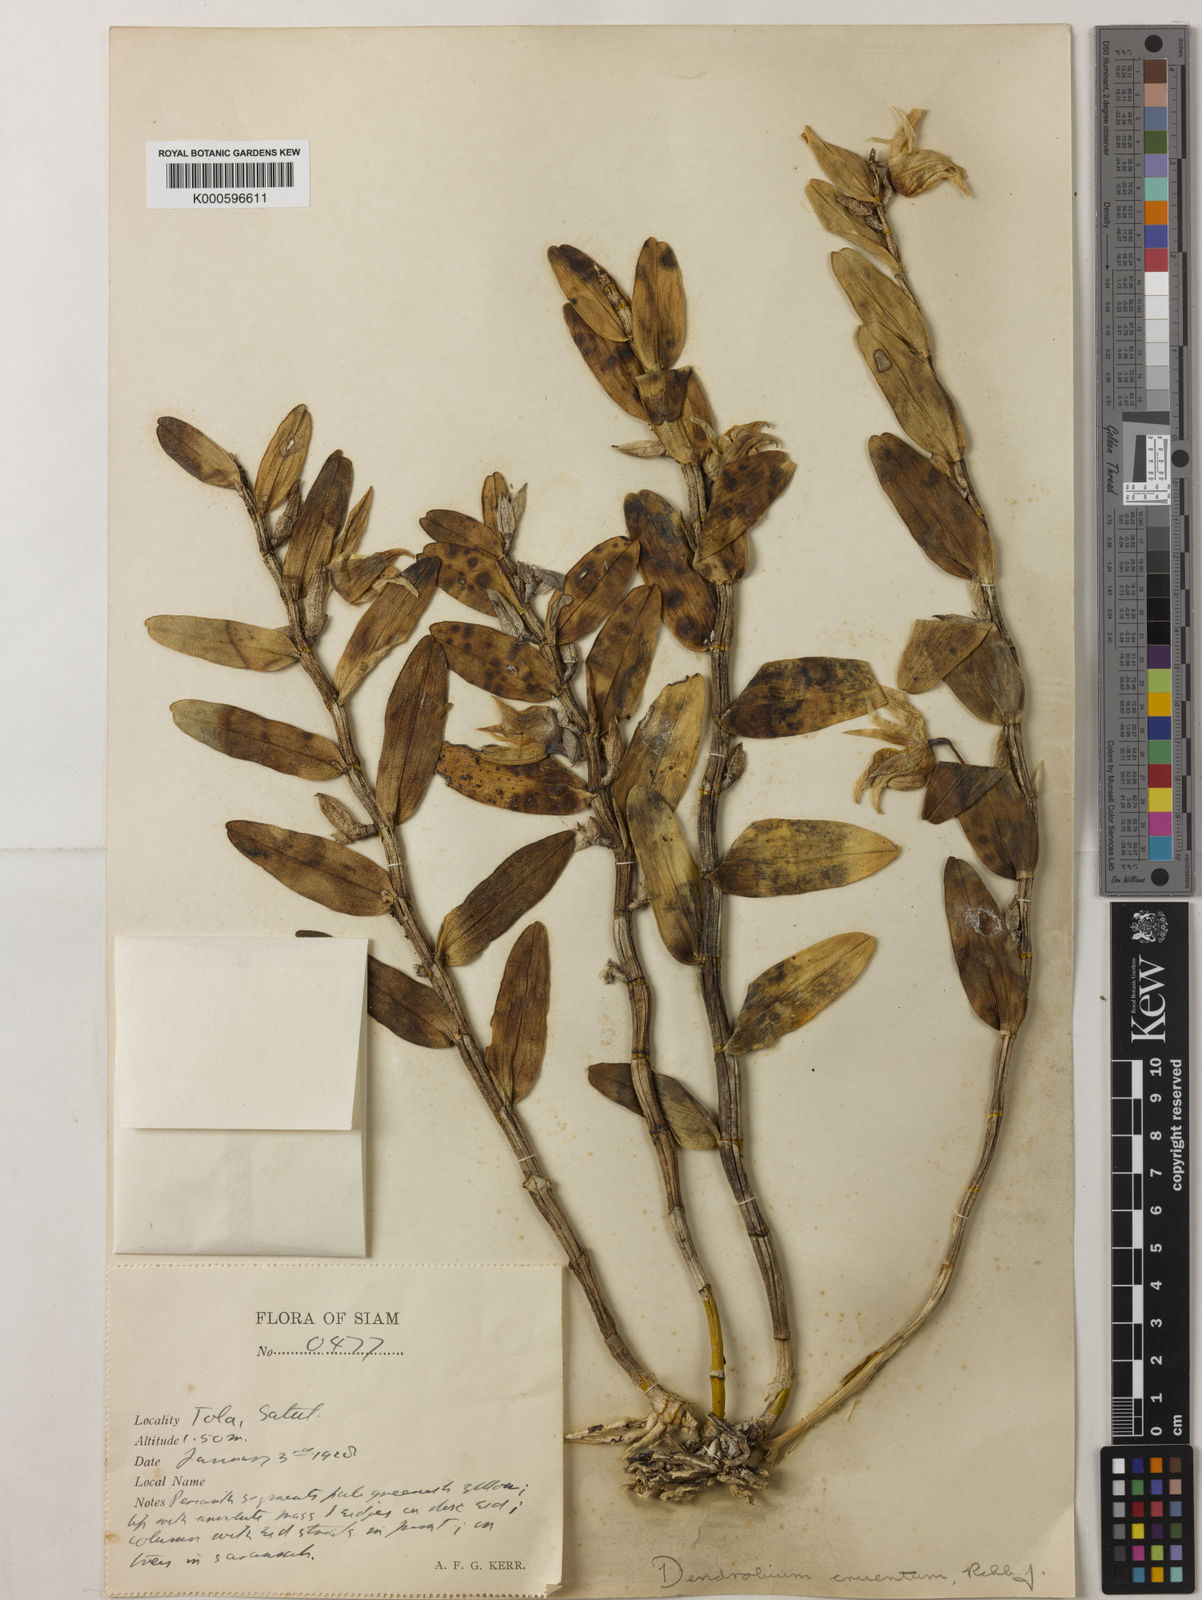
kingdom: Plantae
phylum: Tracheophyta
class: Liliopsida
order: Asparagales
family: Orchidaceae
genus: Dendrobium
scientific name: Dendrobium cruentum
